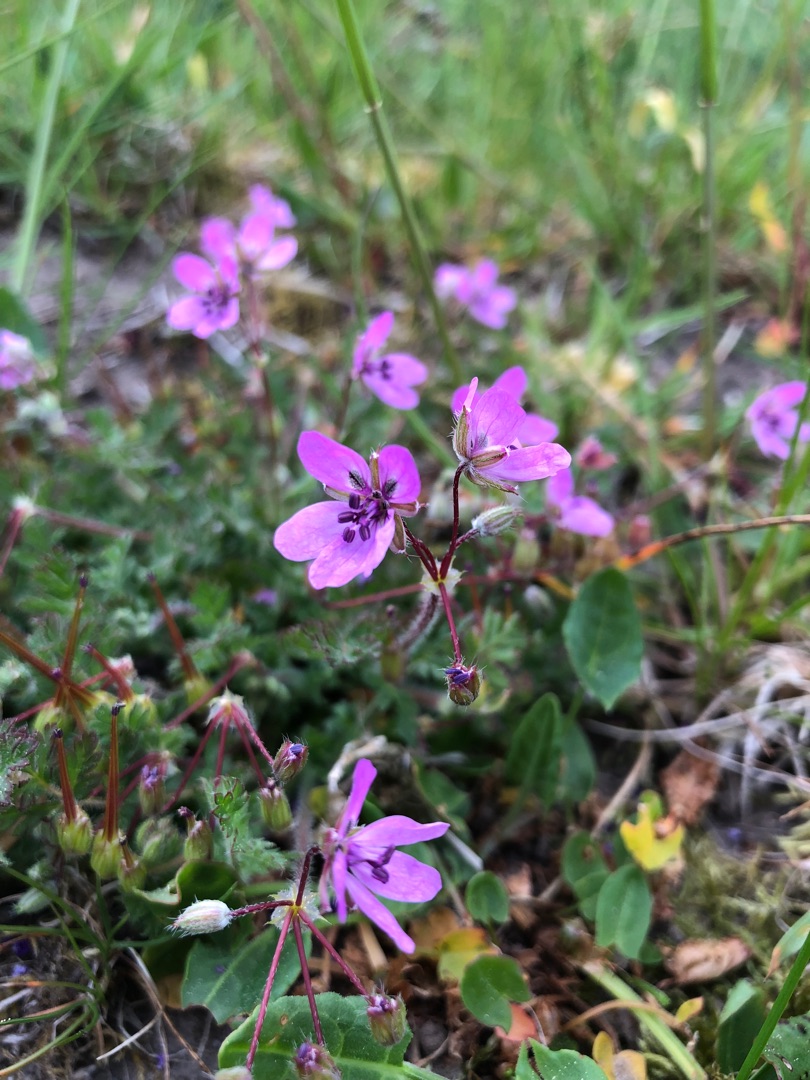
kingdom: Plantae
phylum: Tracheophyta
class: Magnoliopsida
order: Geraniales
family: Geraniaceae
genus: Erodium
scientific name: Erodium cicutarium
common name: Hejrenæb
